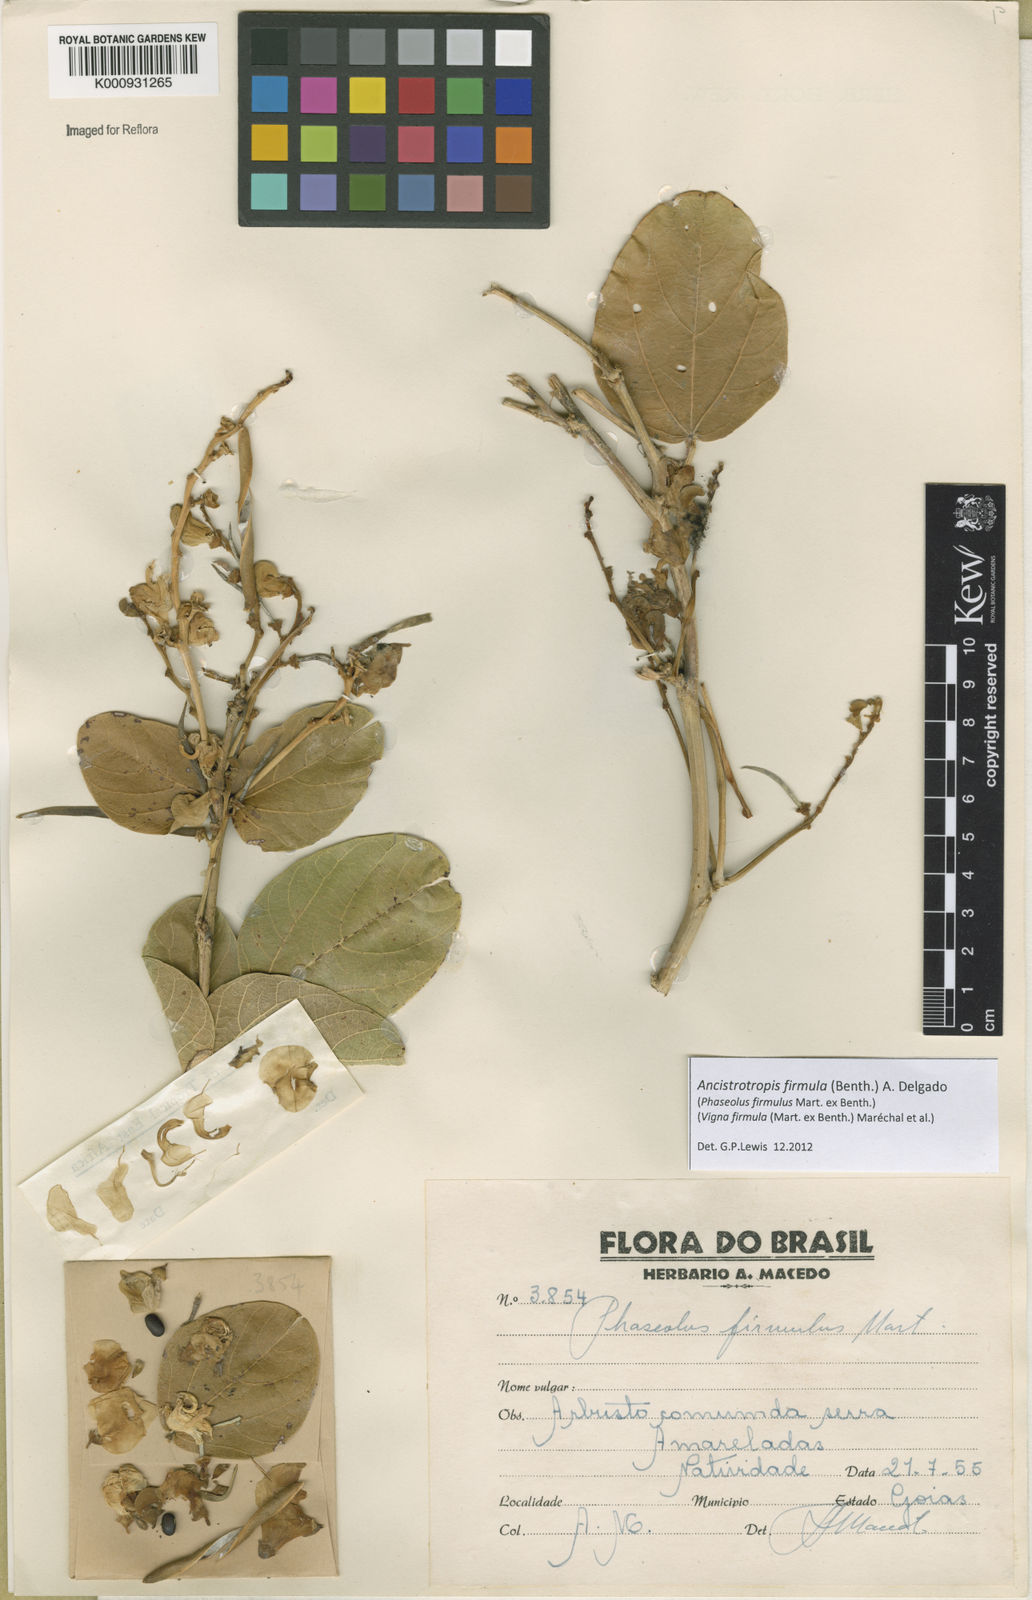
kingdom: Plantae
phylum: Tracheophyta
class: Magnoliopsida
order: Fabales
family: Fabaceae
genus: Ancistrotropis
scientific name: Ancistrotropis firmula
